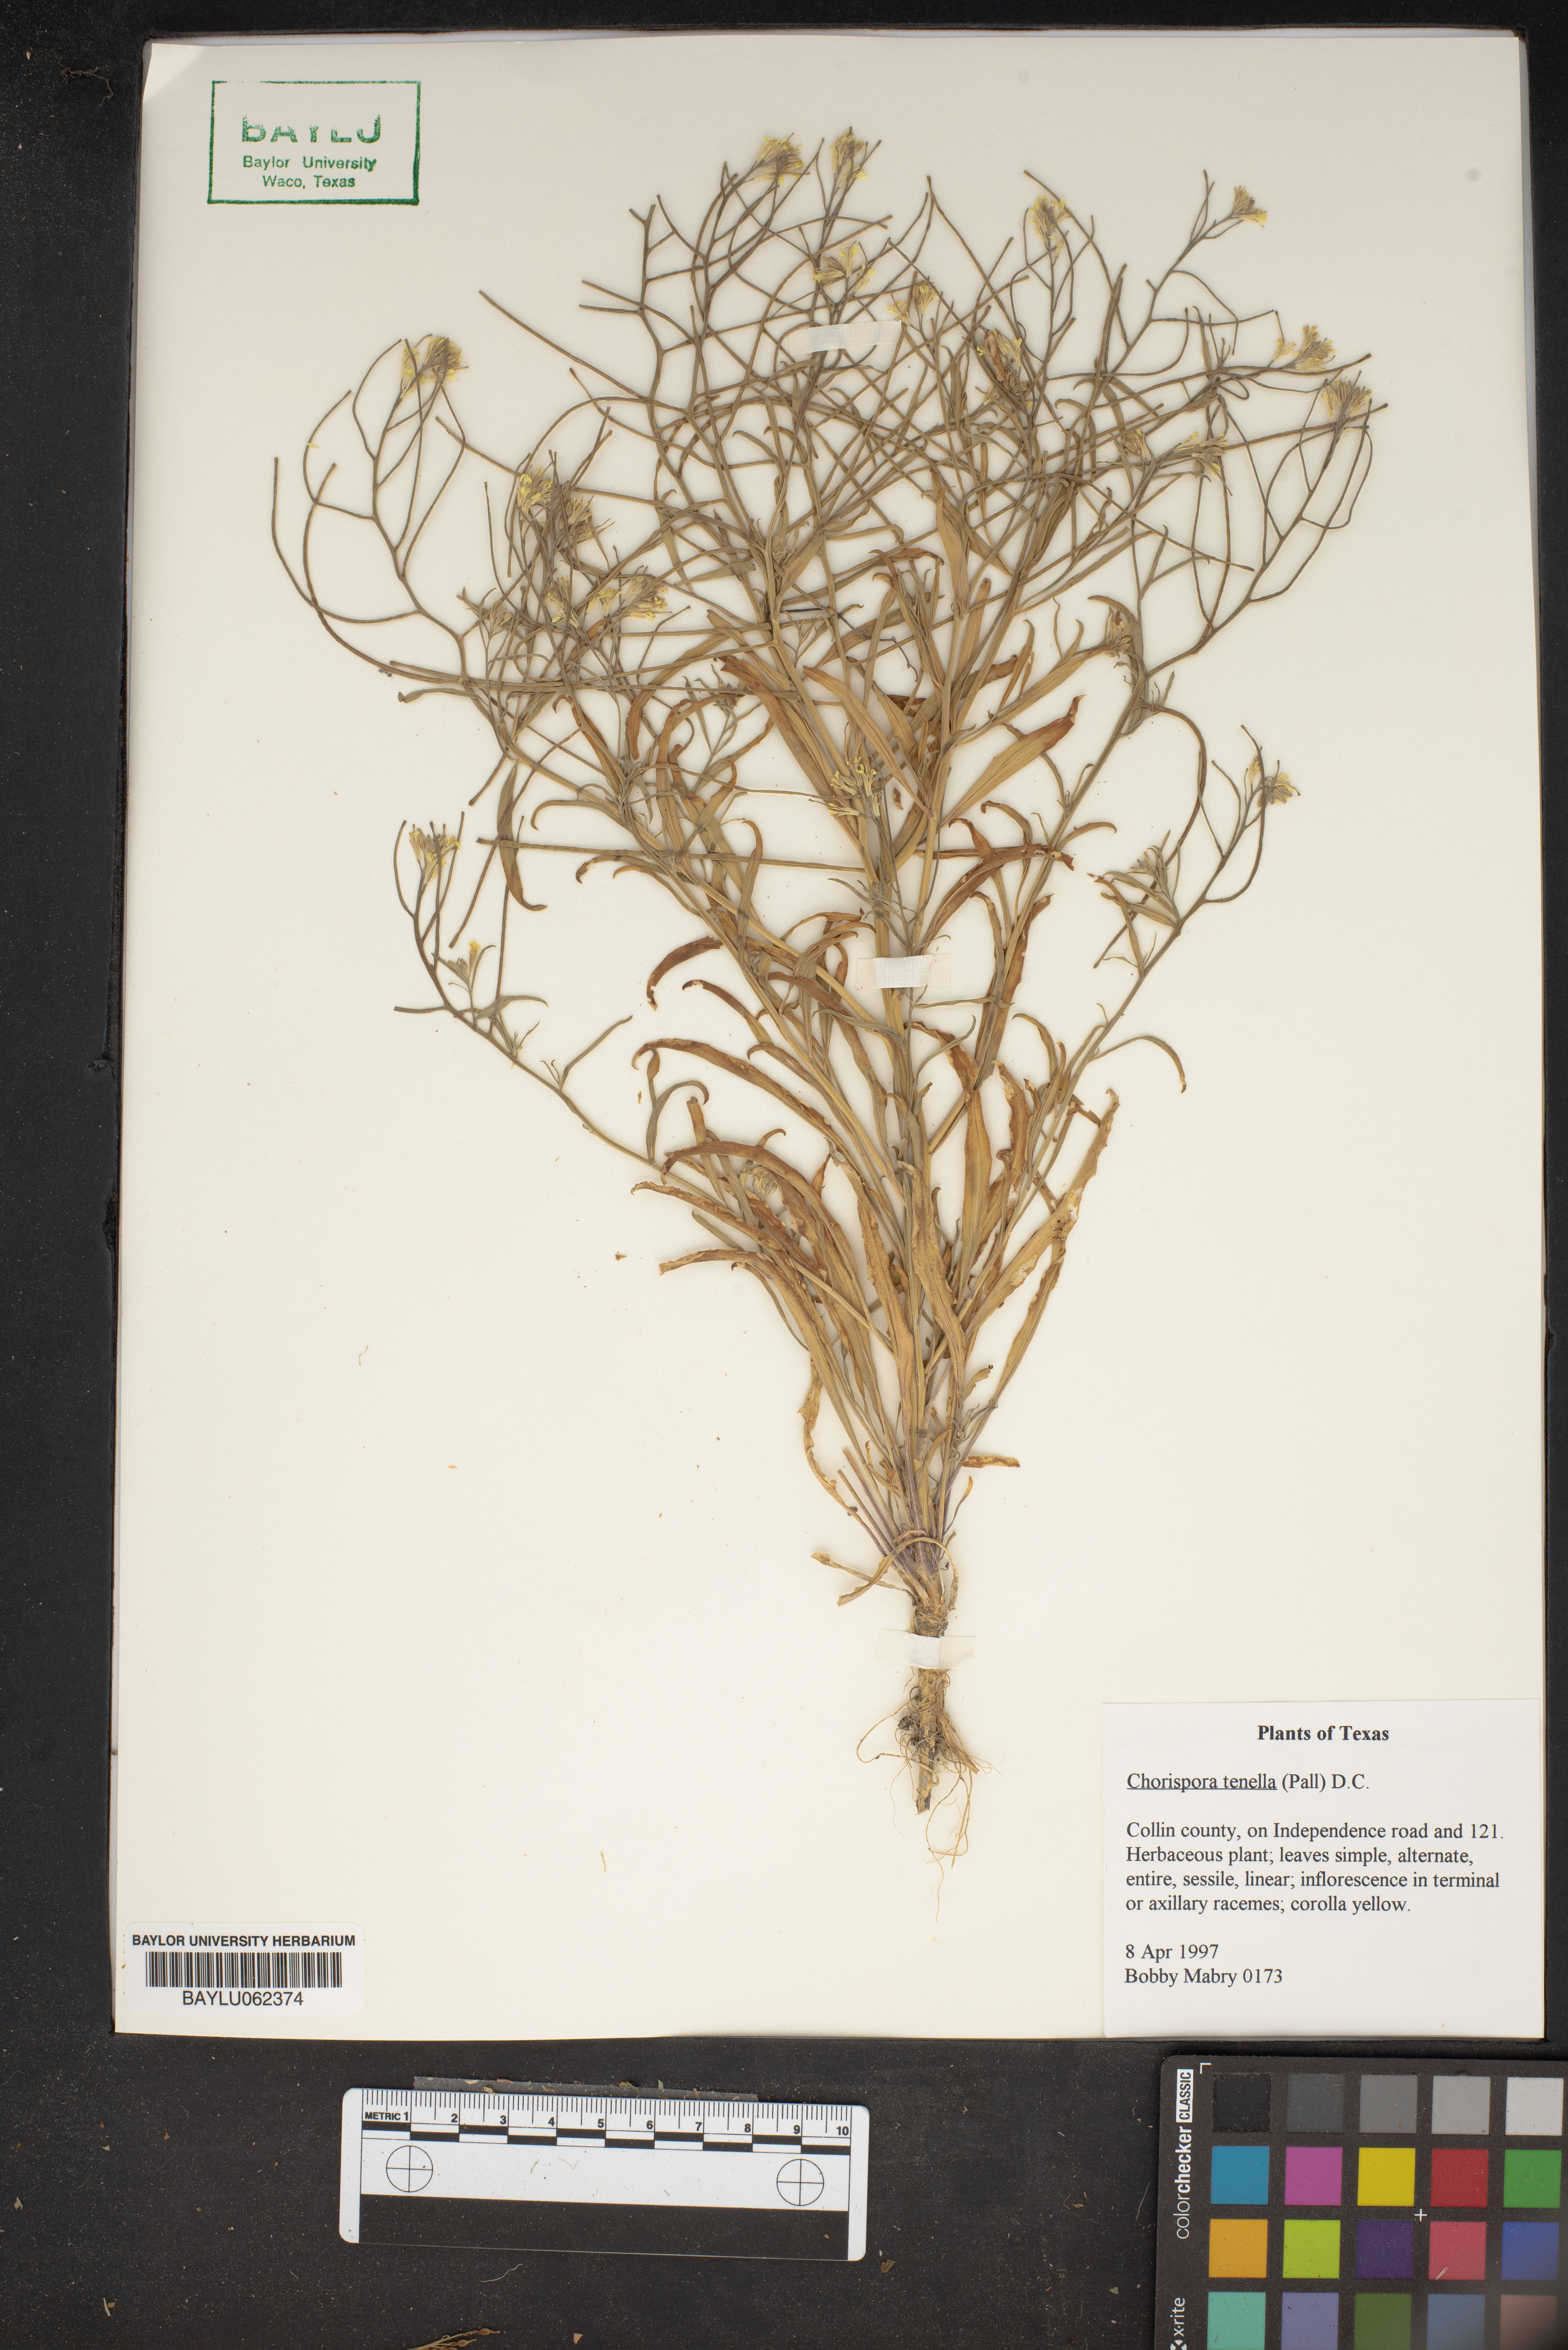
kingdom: Plantae
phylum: Tracheophyta
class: Magnoliopsida
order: Brassicales
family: Brassicaceae
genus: Chorispora
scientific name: Chorispora tenella
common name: Crossflower
